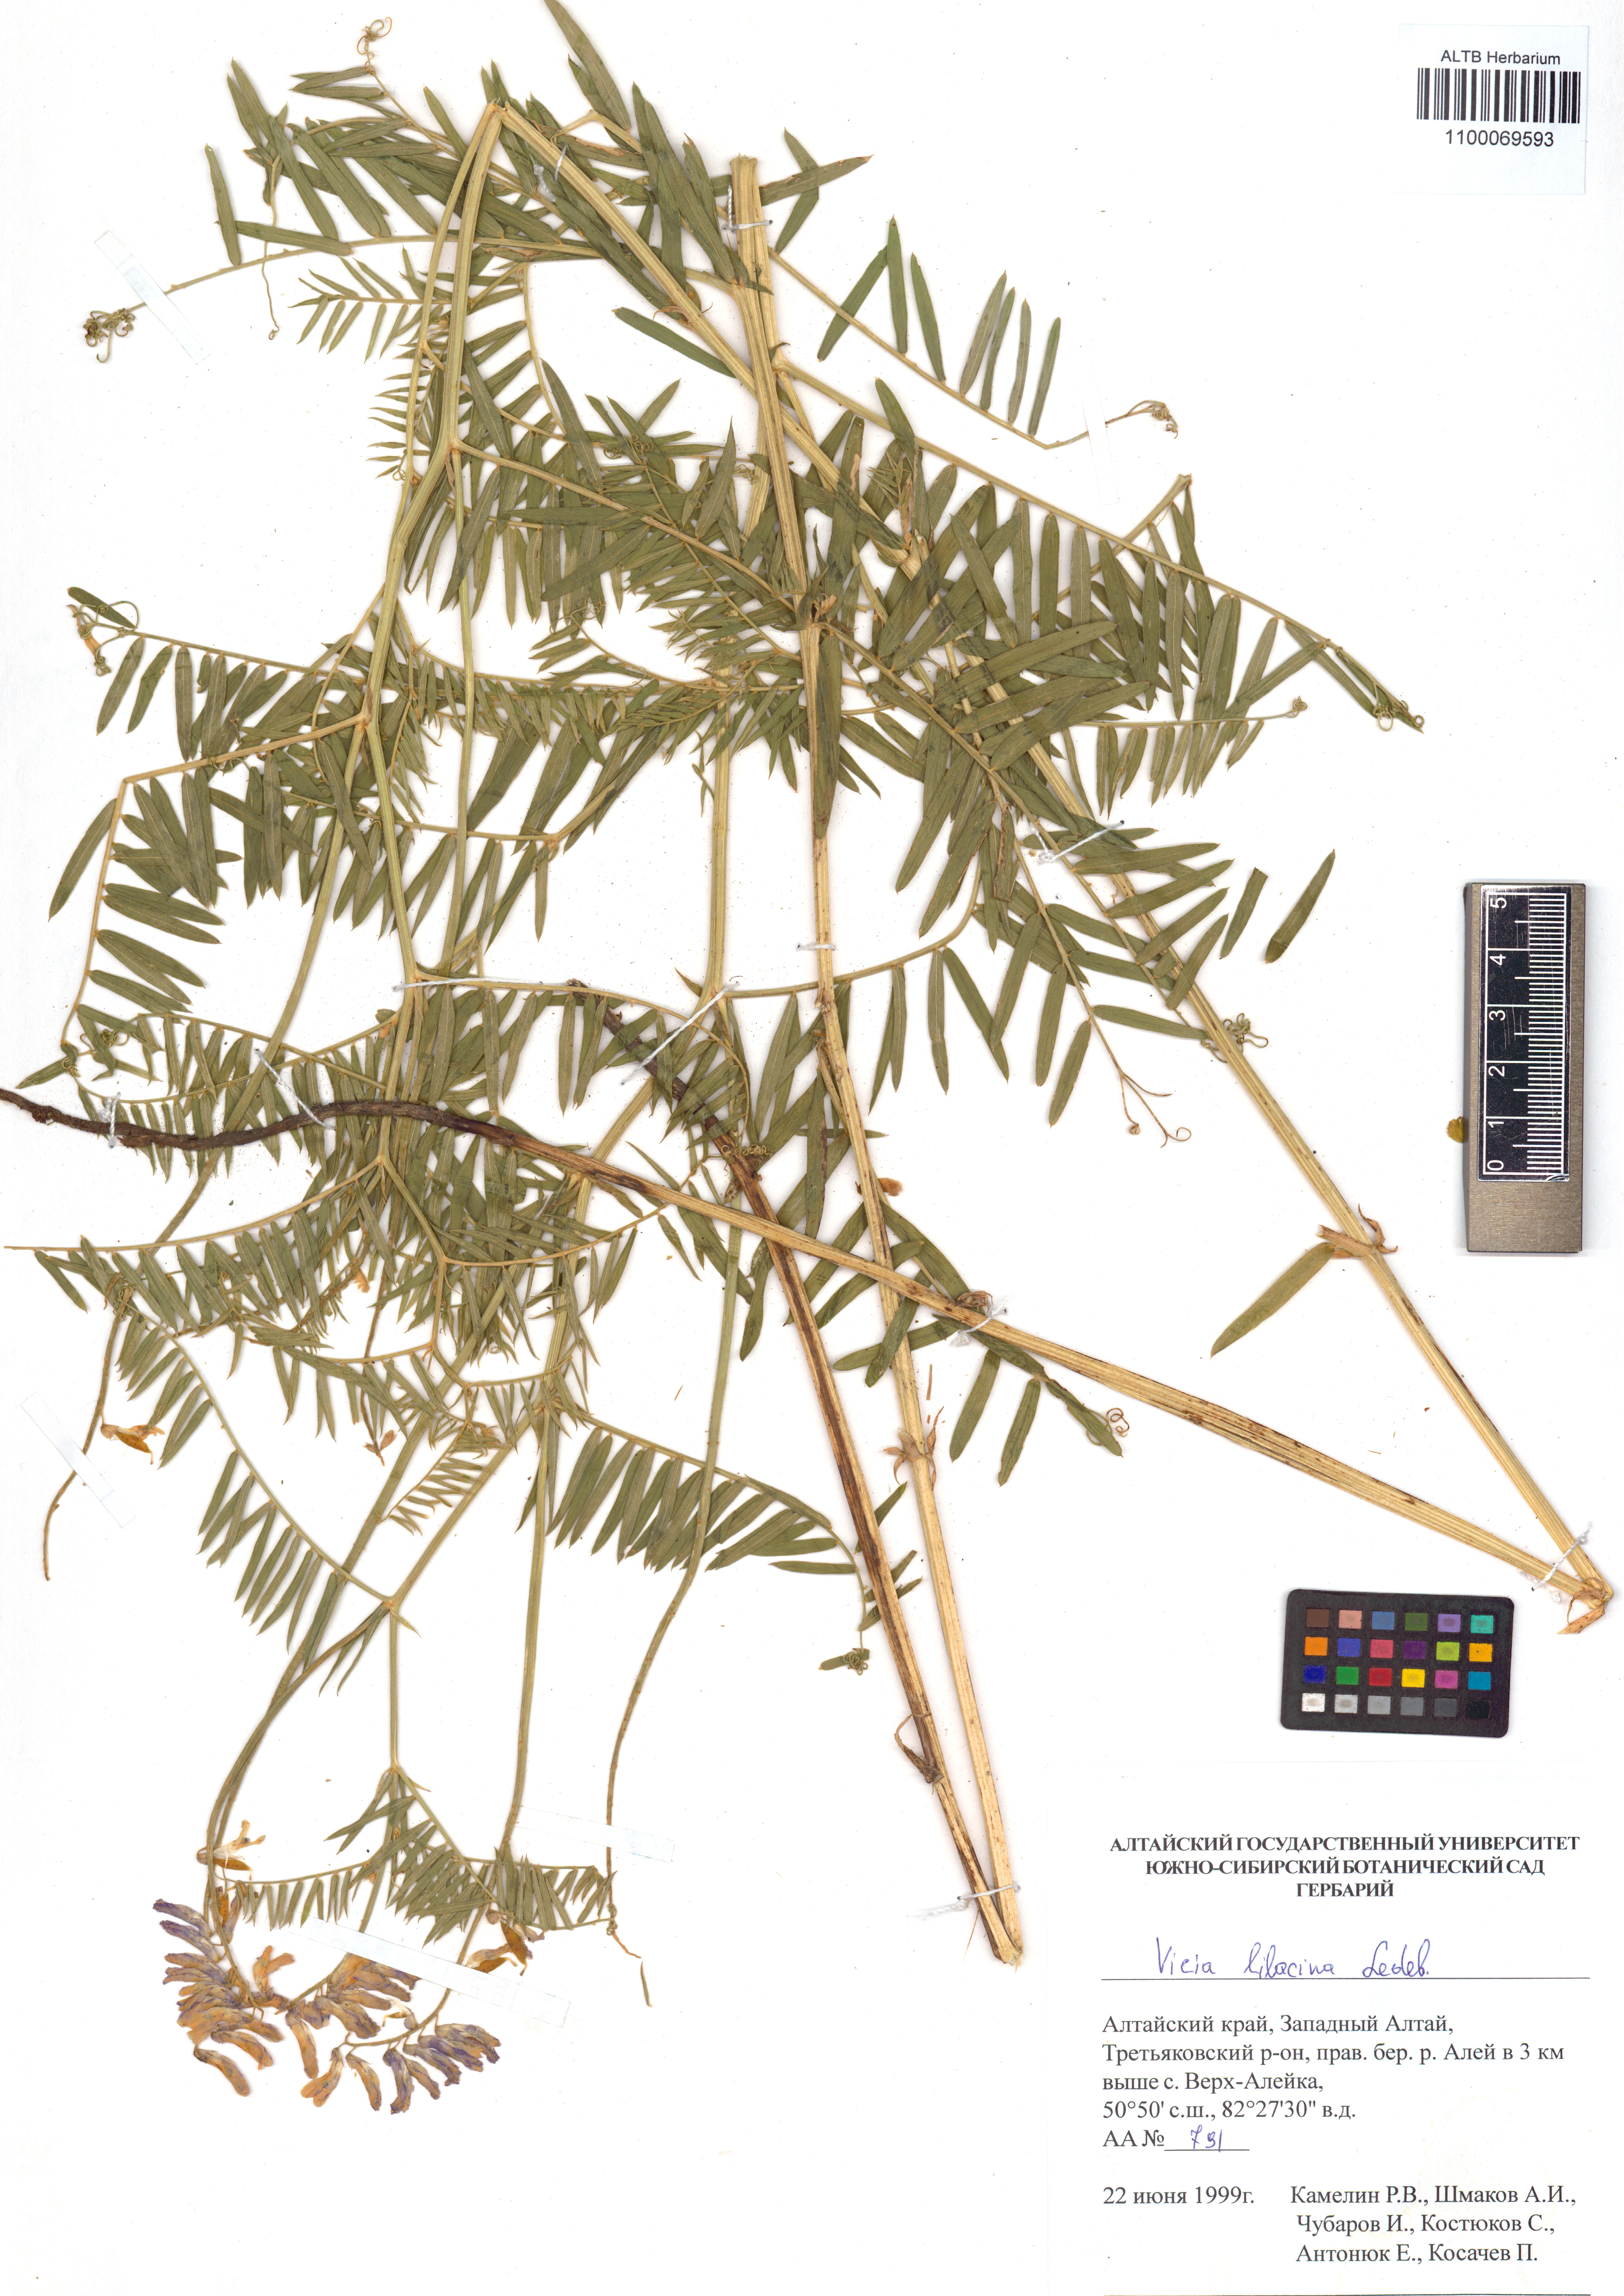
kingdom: Plantae
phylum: Tracheophyta
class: Magnoliopsida
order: Fabales
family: Fabaceae
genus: Vicia
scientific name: Vicia lilacina
